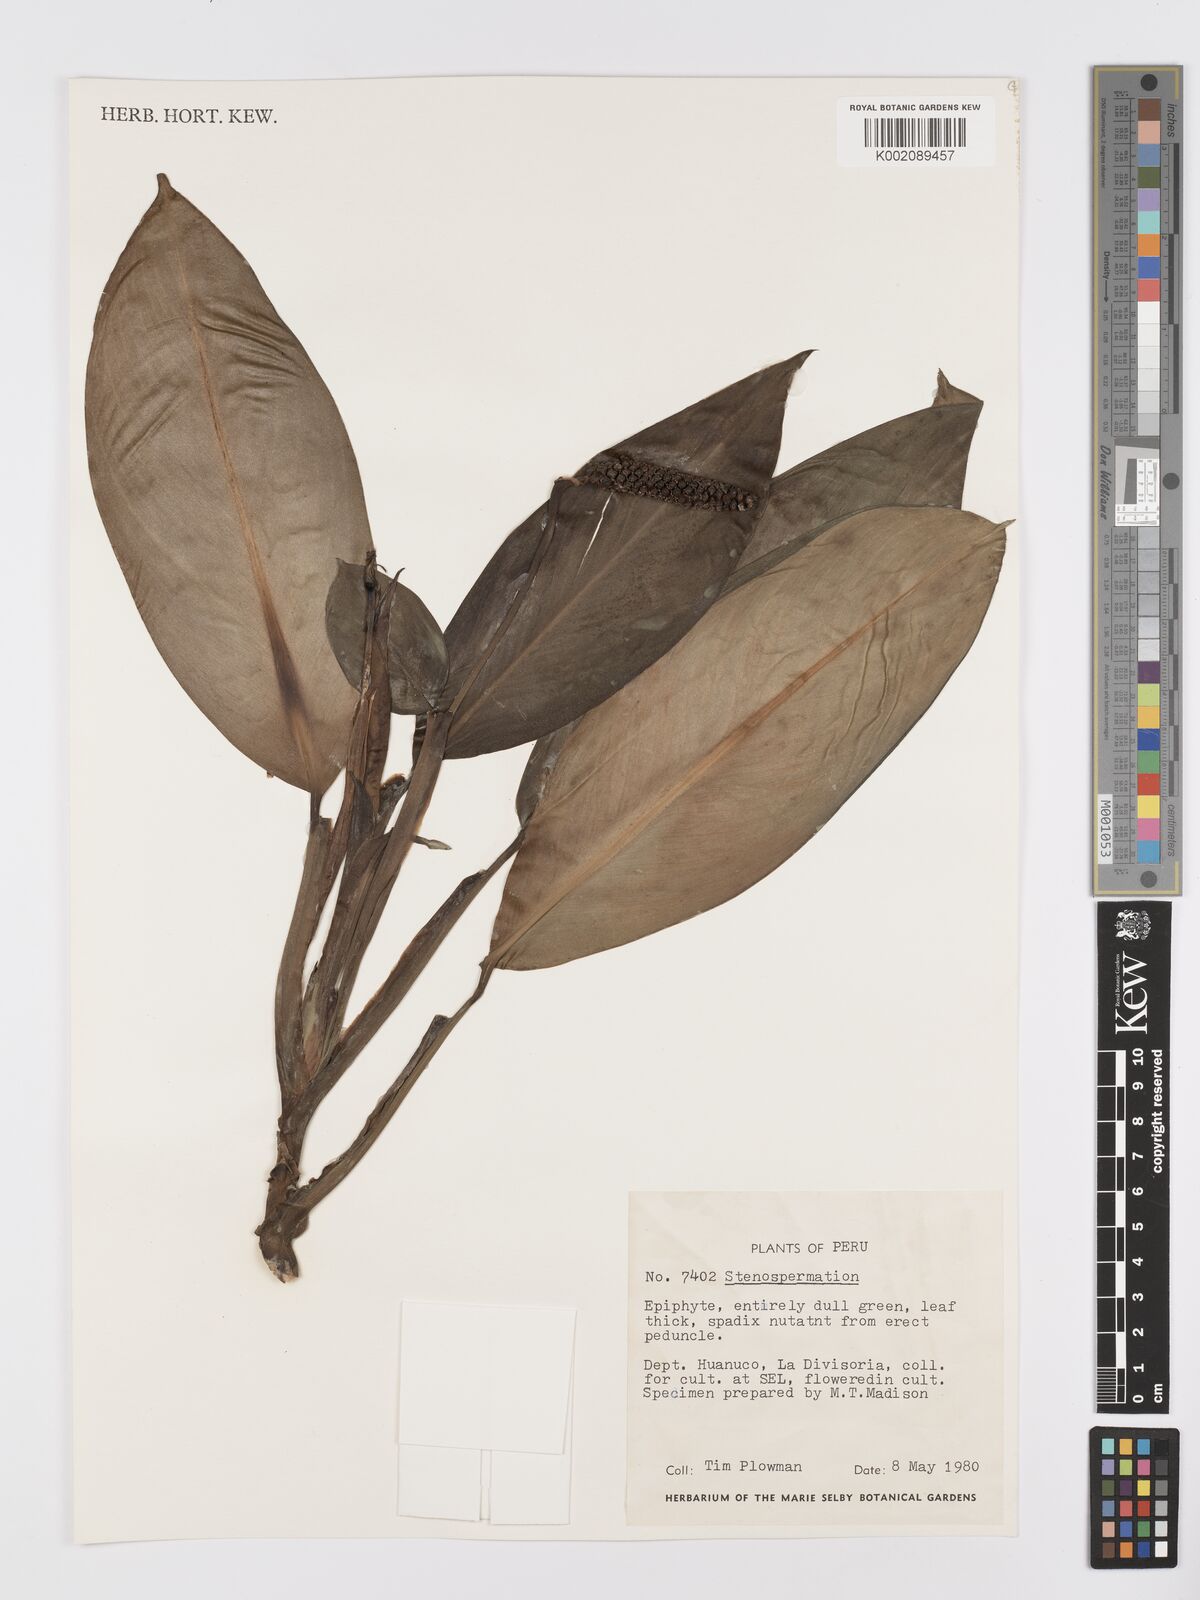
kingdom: Plantae
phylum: Tracheophyta
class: Liliopsida
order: Alismatales
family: Araceae
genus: Stenospermation
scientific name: Stenospermation amomifolium
